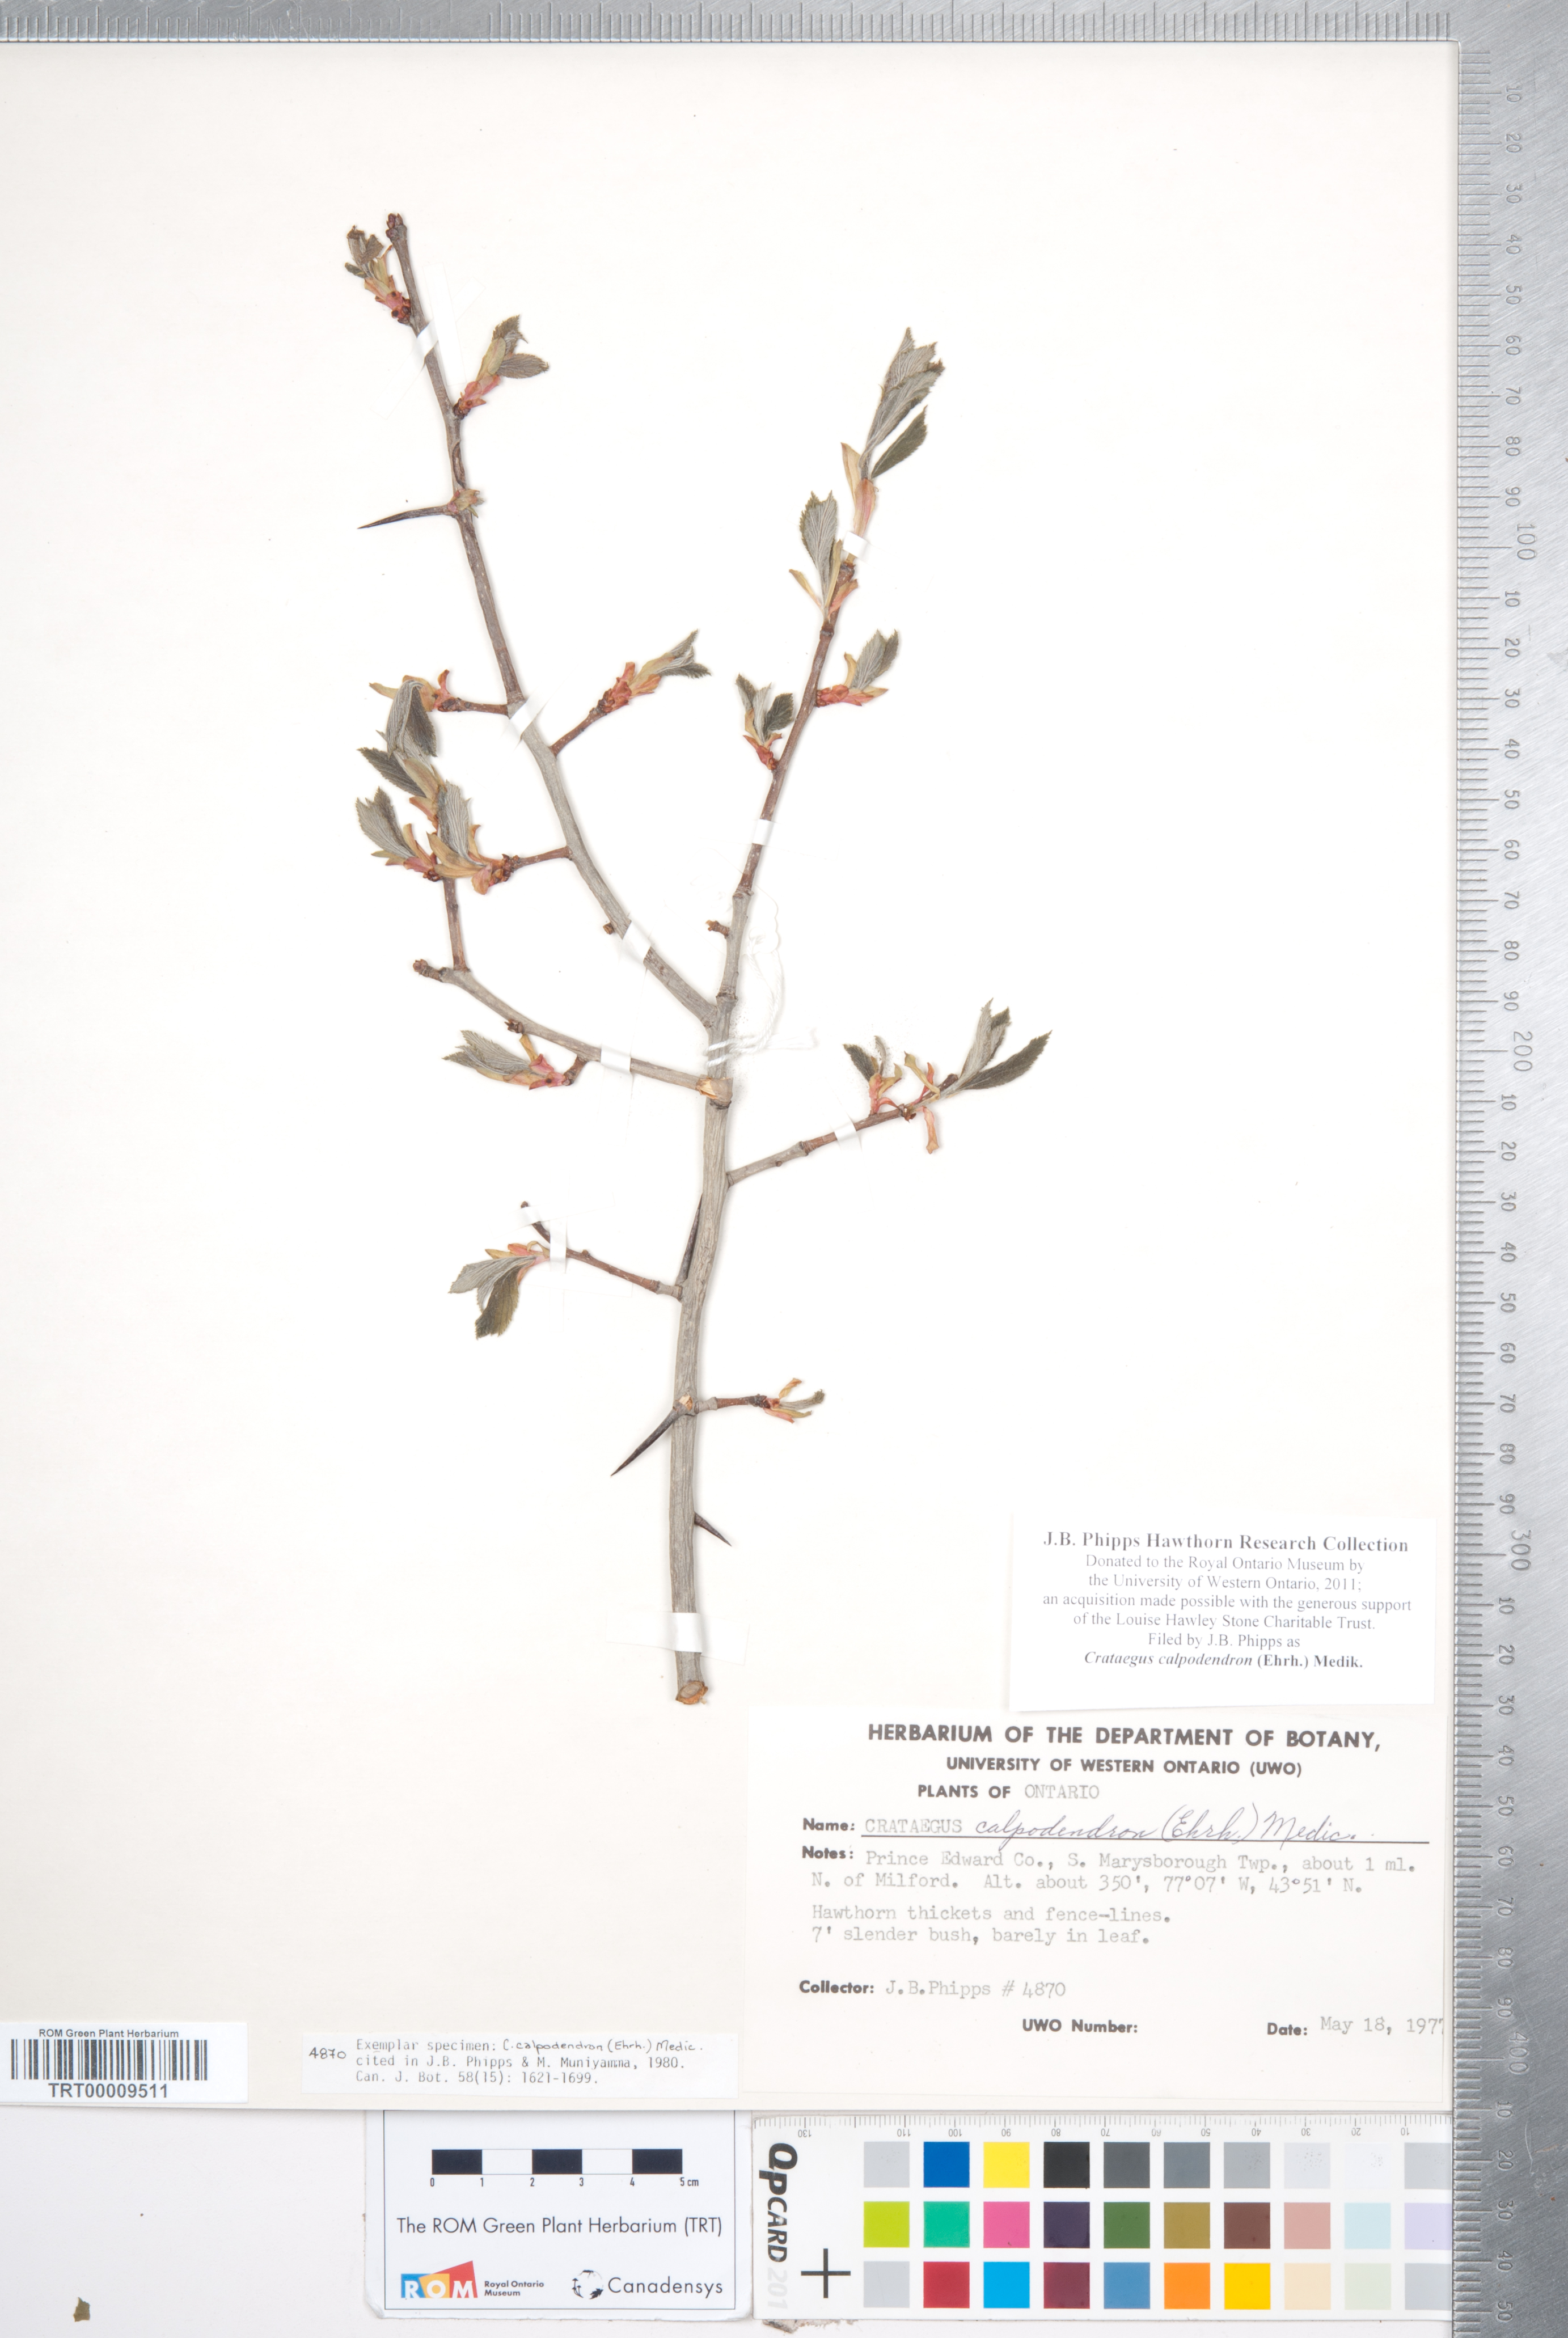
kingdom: Plantae
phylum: Tracheophyta
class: Magnoliopsida
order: Rosales
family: Rosaceae
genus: Crataegus
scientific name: Crataegus calpodendron
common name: Pear hawthorn
